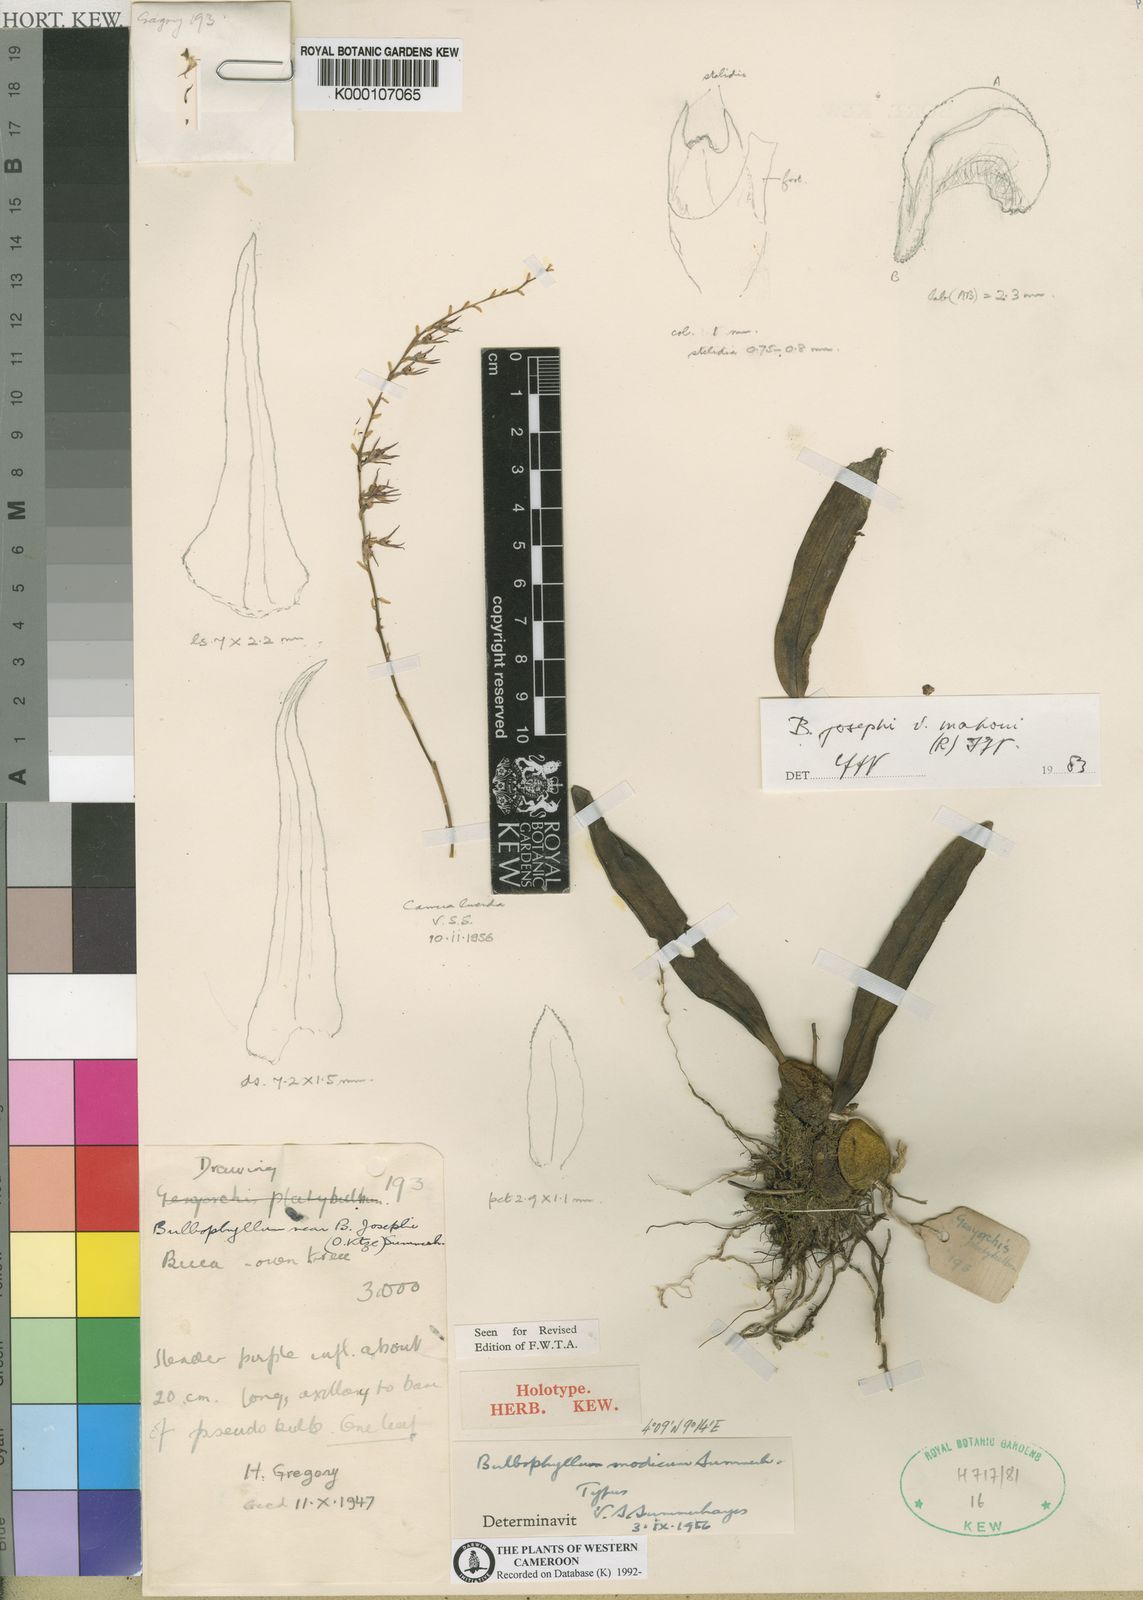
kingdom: Plantae
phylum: Tracheophyta
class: Liliopsida
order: Asparagales
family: Orchidaceae
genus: Bulbophyllum
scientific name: Bulbophyllum josephi
